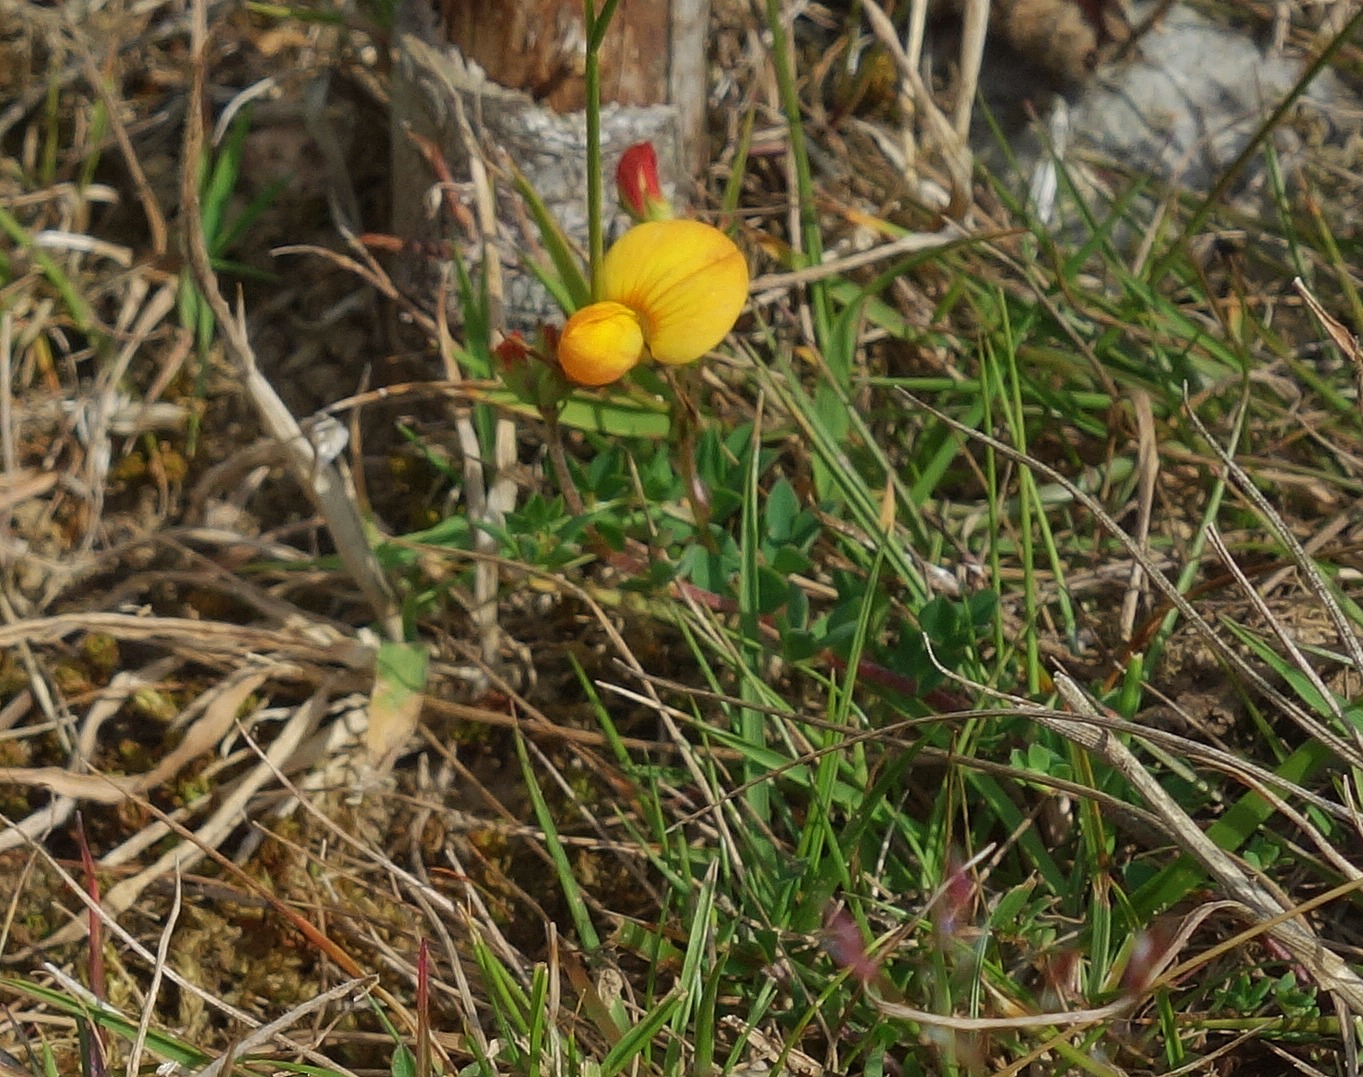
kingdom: Plantae
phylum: Tracheophyta
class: Magnoliopsida
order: Fabales
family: Fabaceae
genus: Lotus
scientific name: Lotus corniculatus
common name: Almindelig kællingetand
